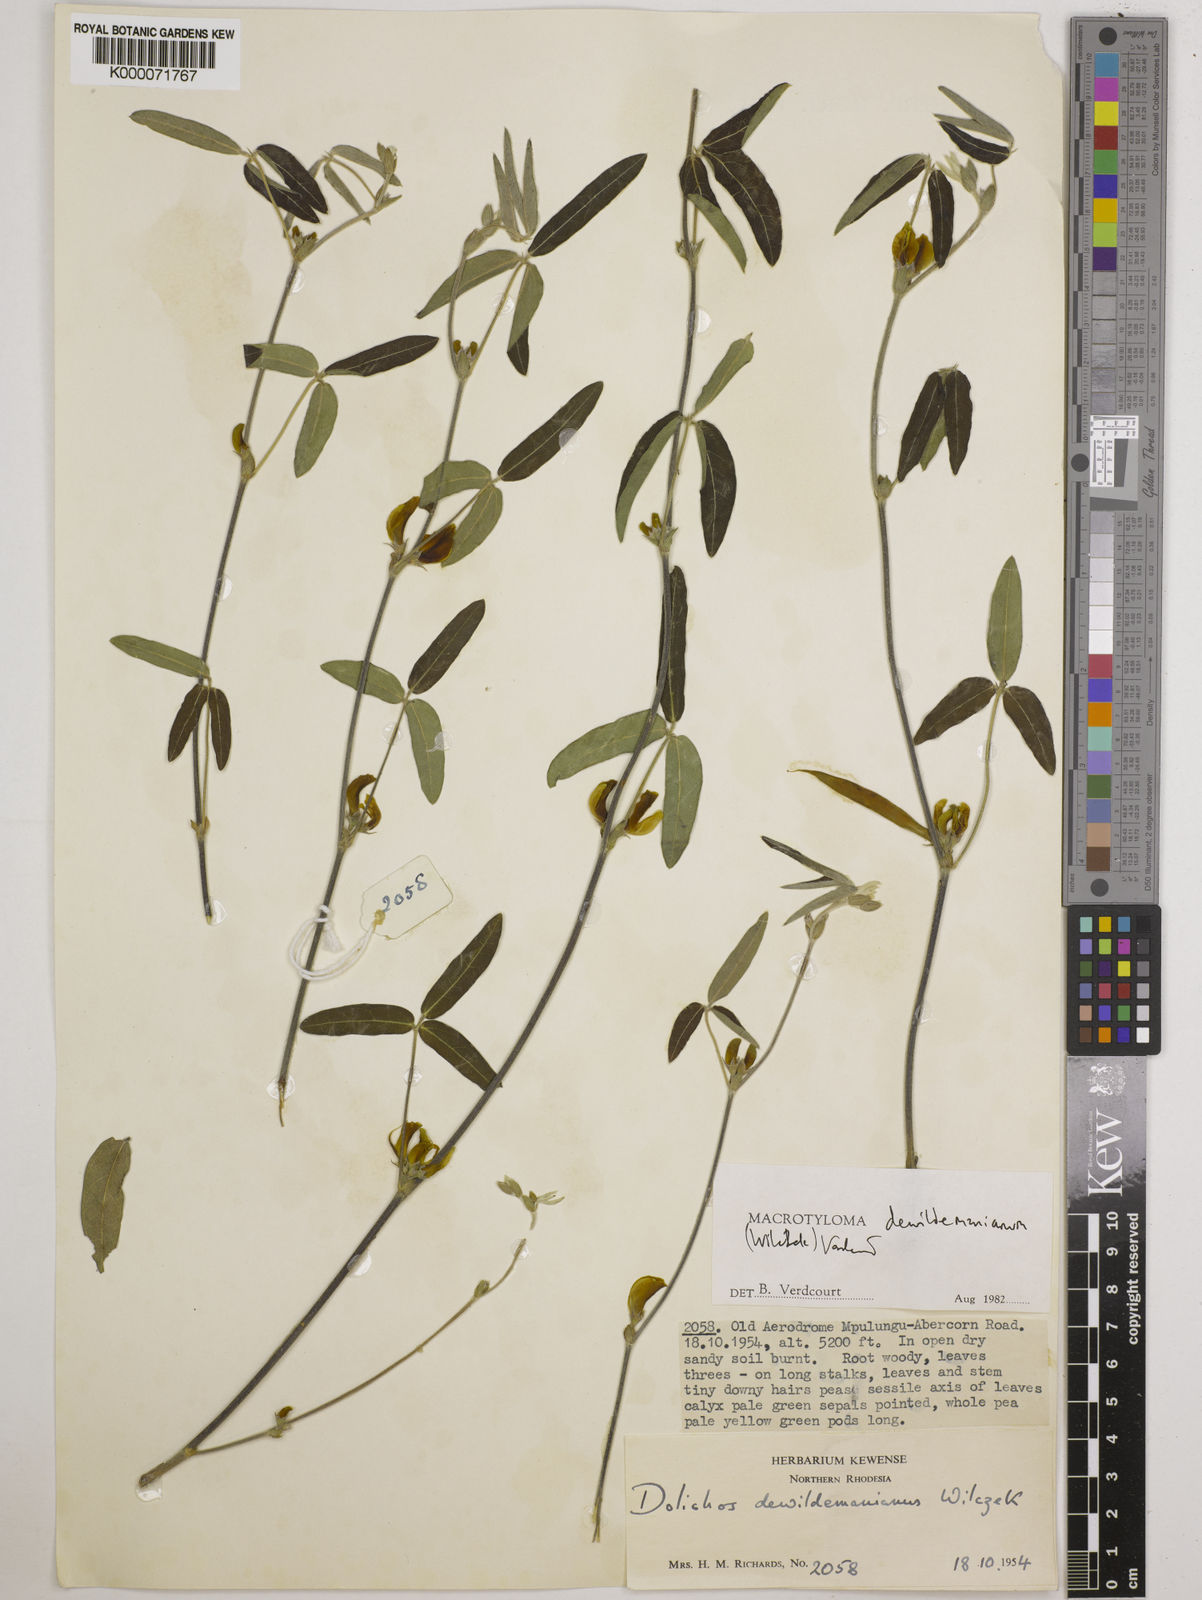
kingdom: Plantae
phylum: Tracheophyta
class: Magnoliopsida
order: Fabales
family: Fabaceae
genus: Macrotyloma
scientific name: Macrotyloma dewildemanianum
